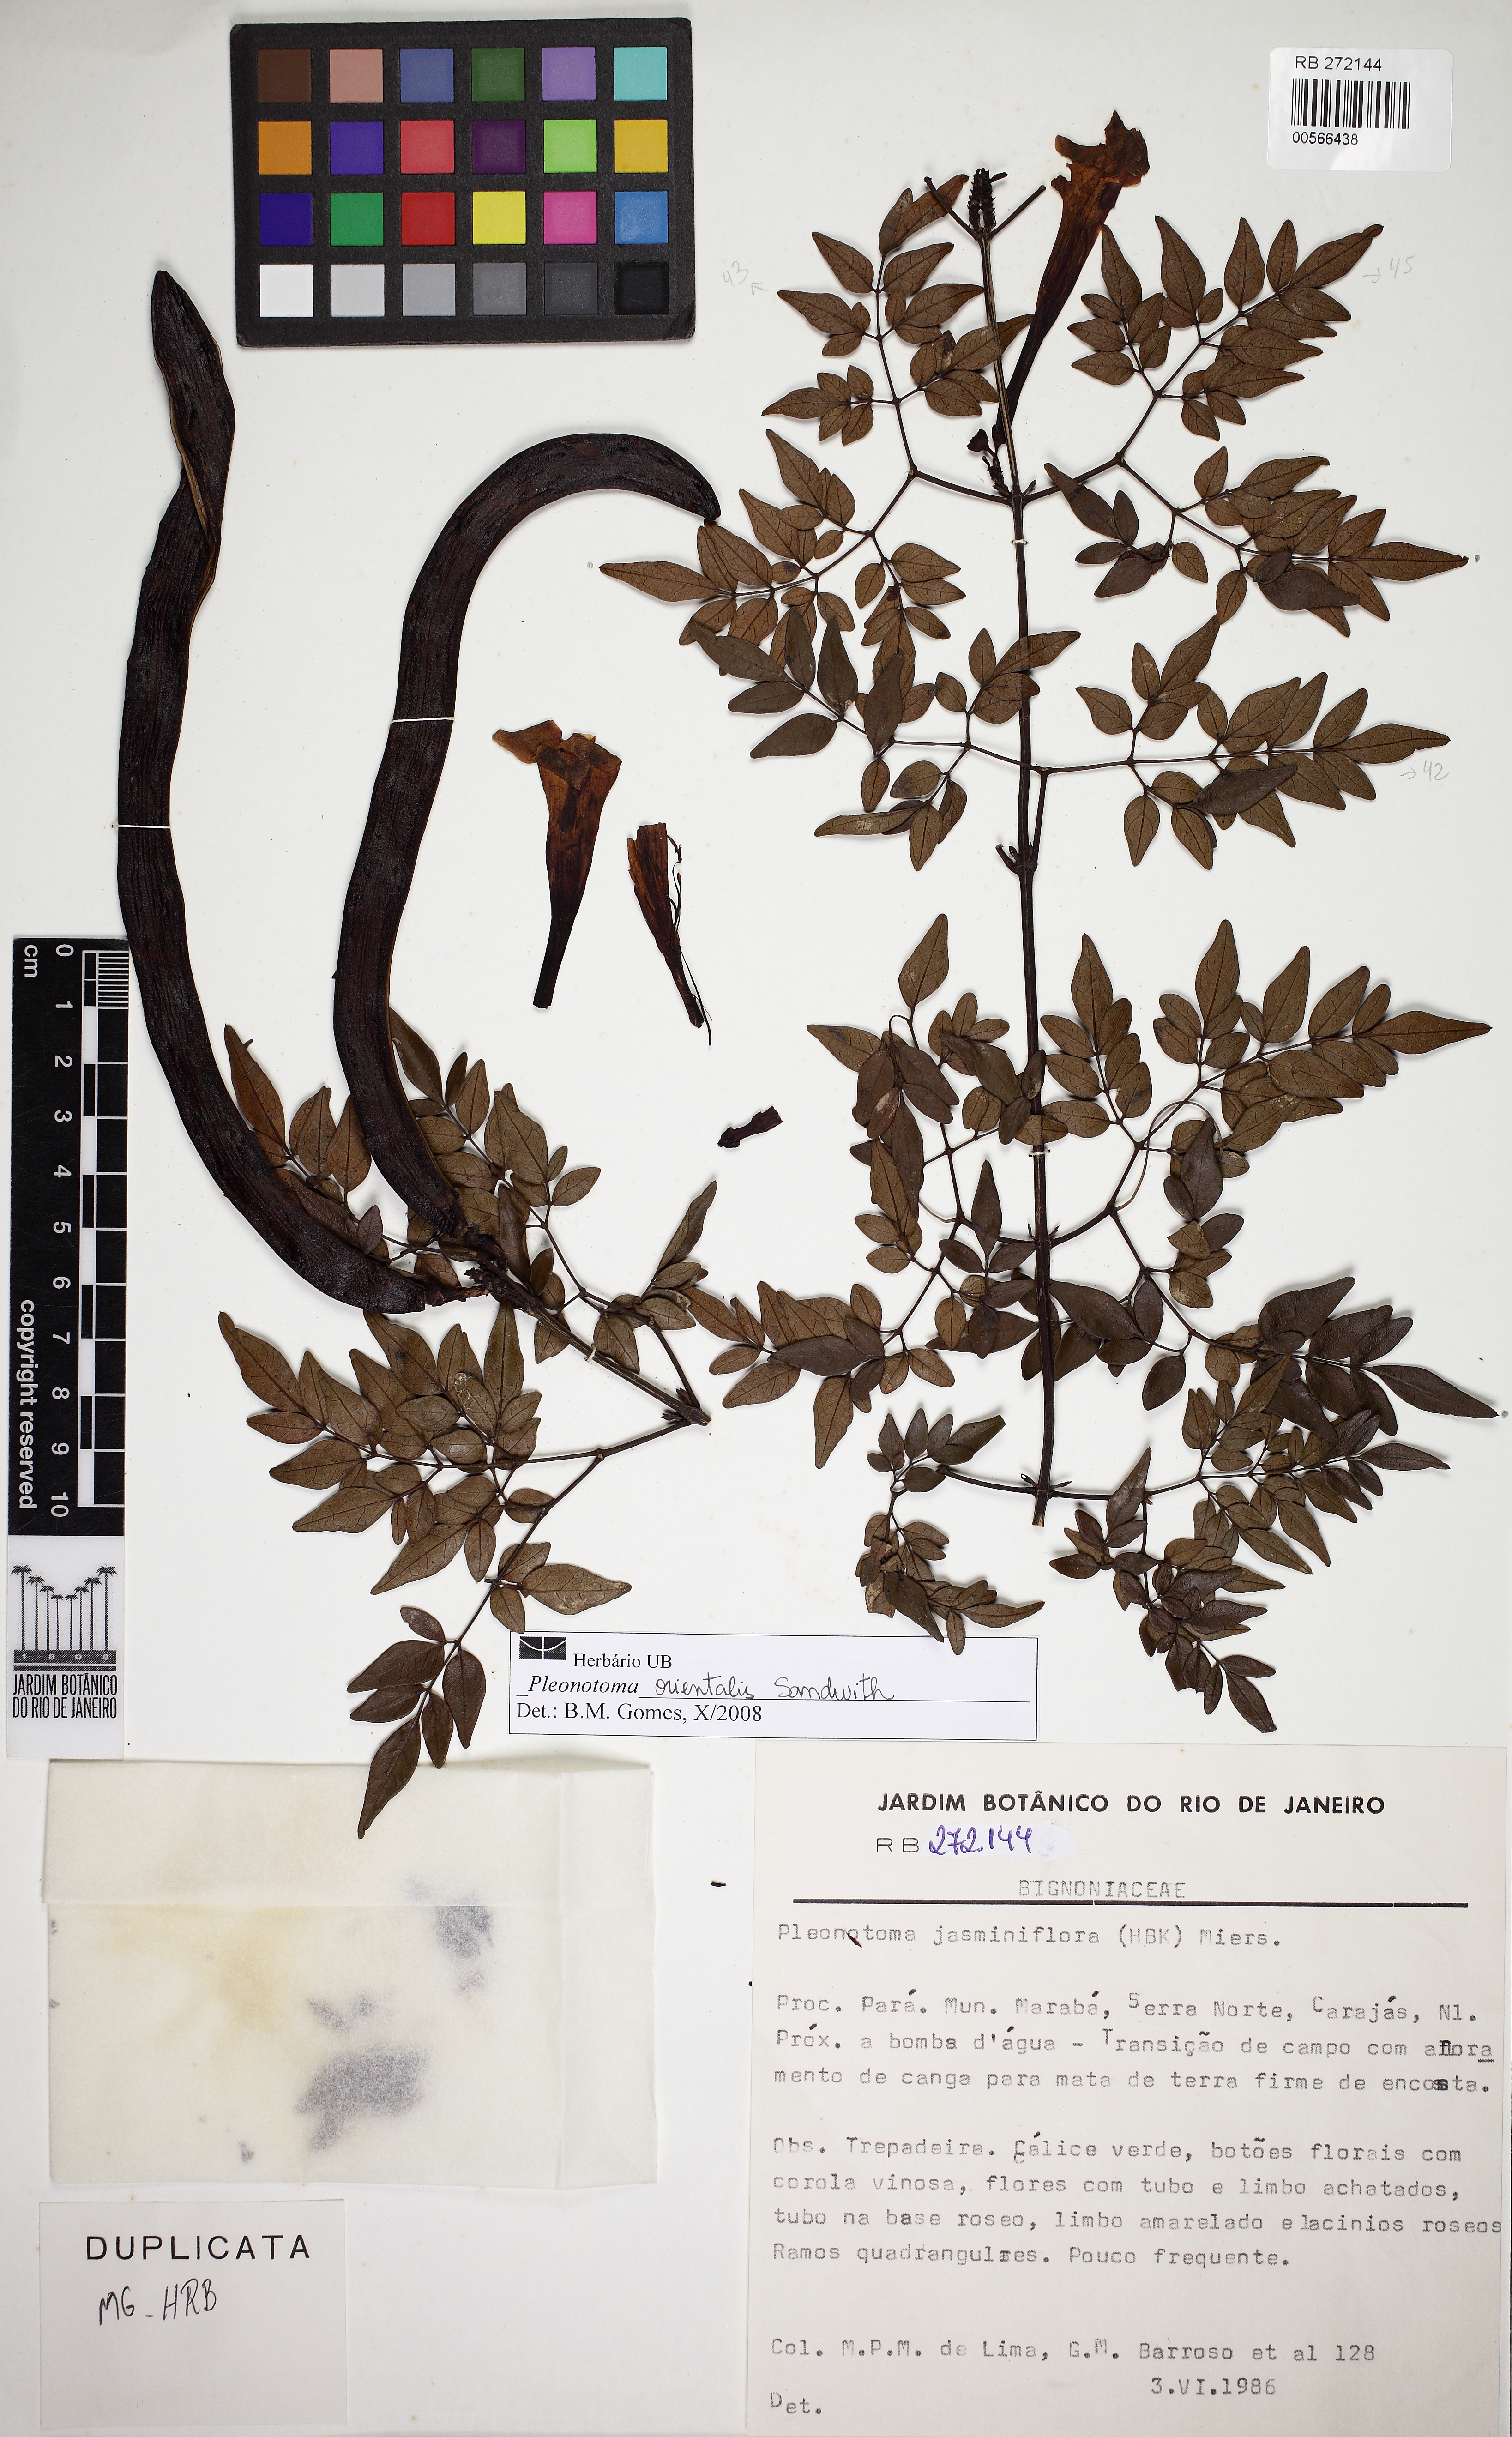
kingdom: Plantae
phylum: Tracheophyta
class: Magnoliopsida
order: Lamiales
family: Bignoniaceae
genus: Pleonotoma
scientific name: Pleonotoma orientalis
